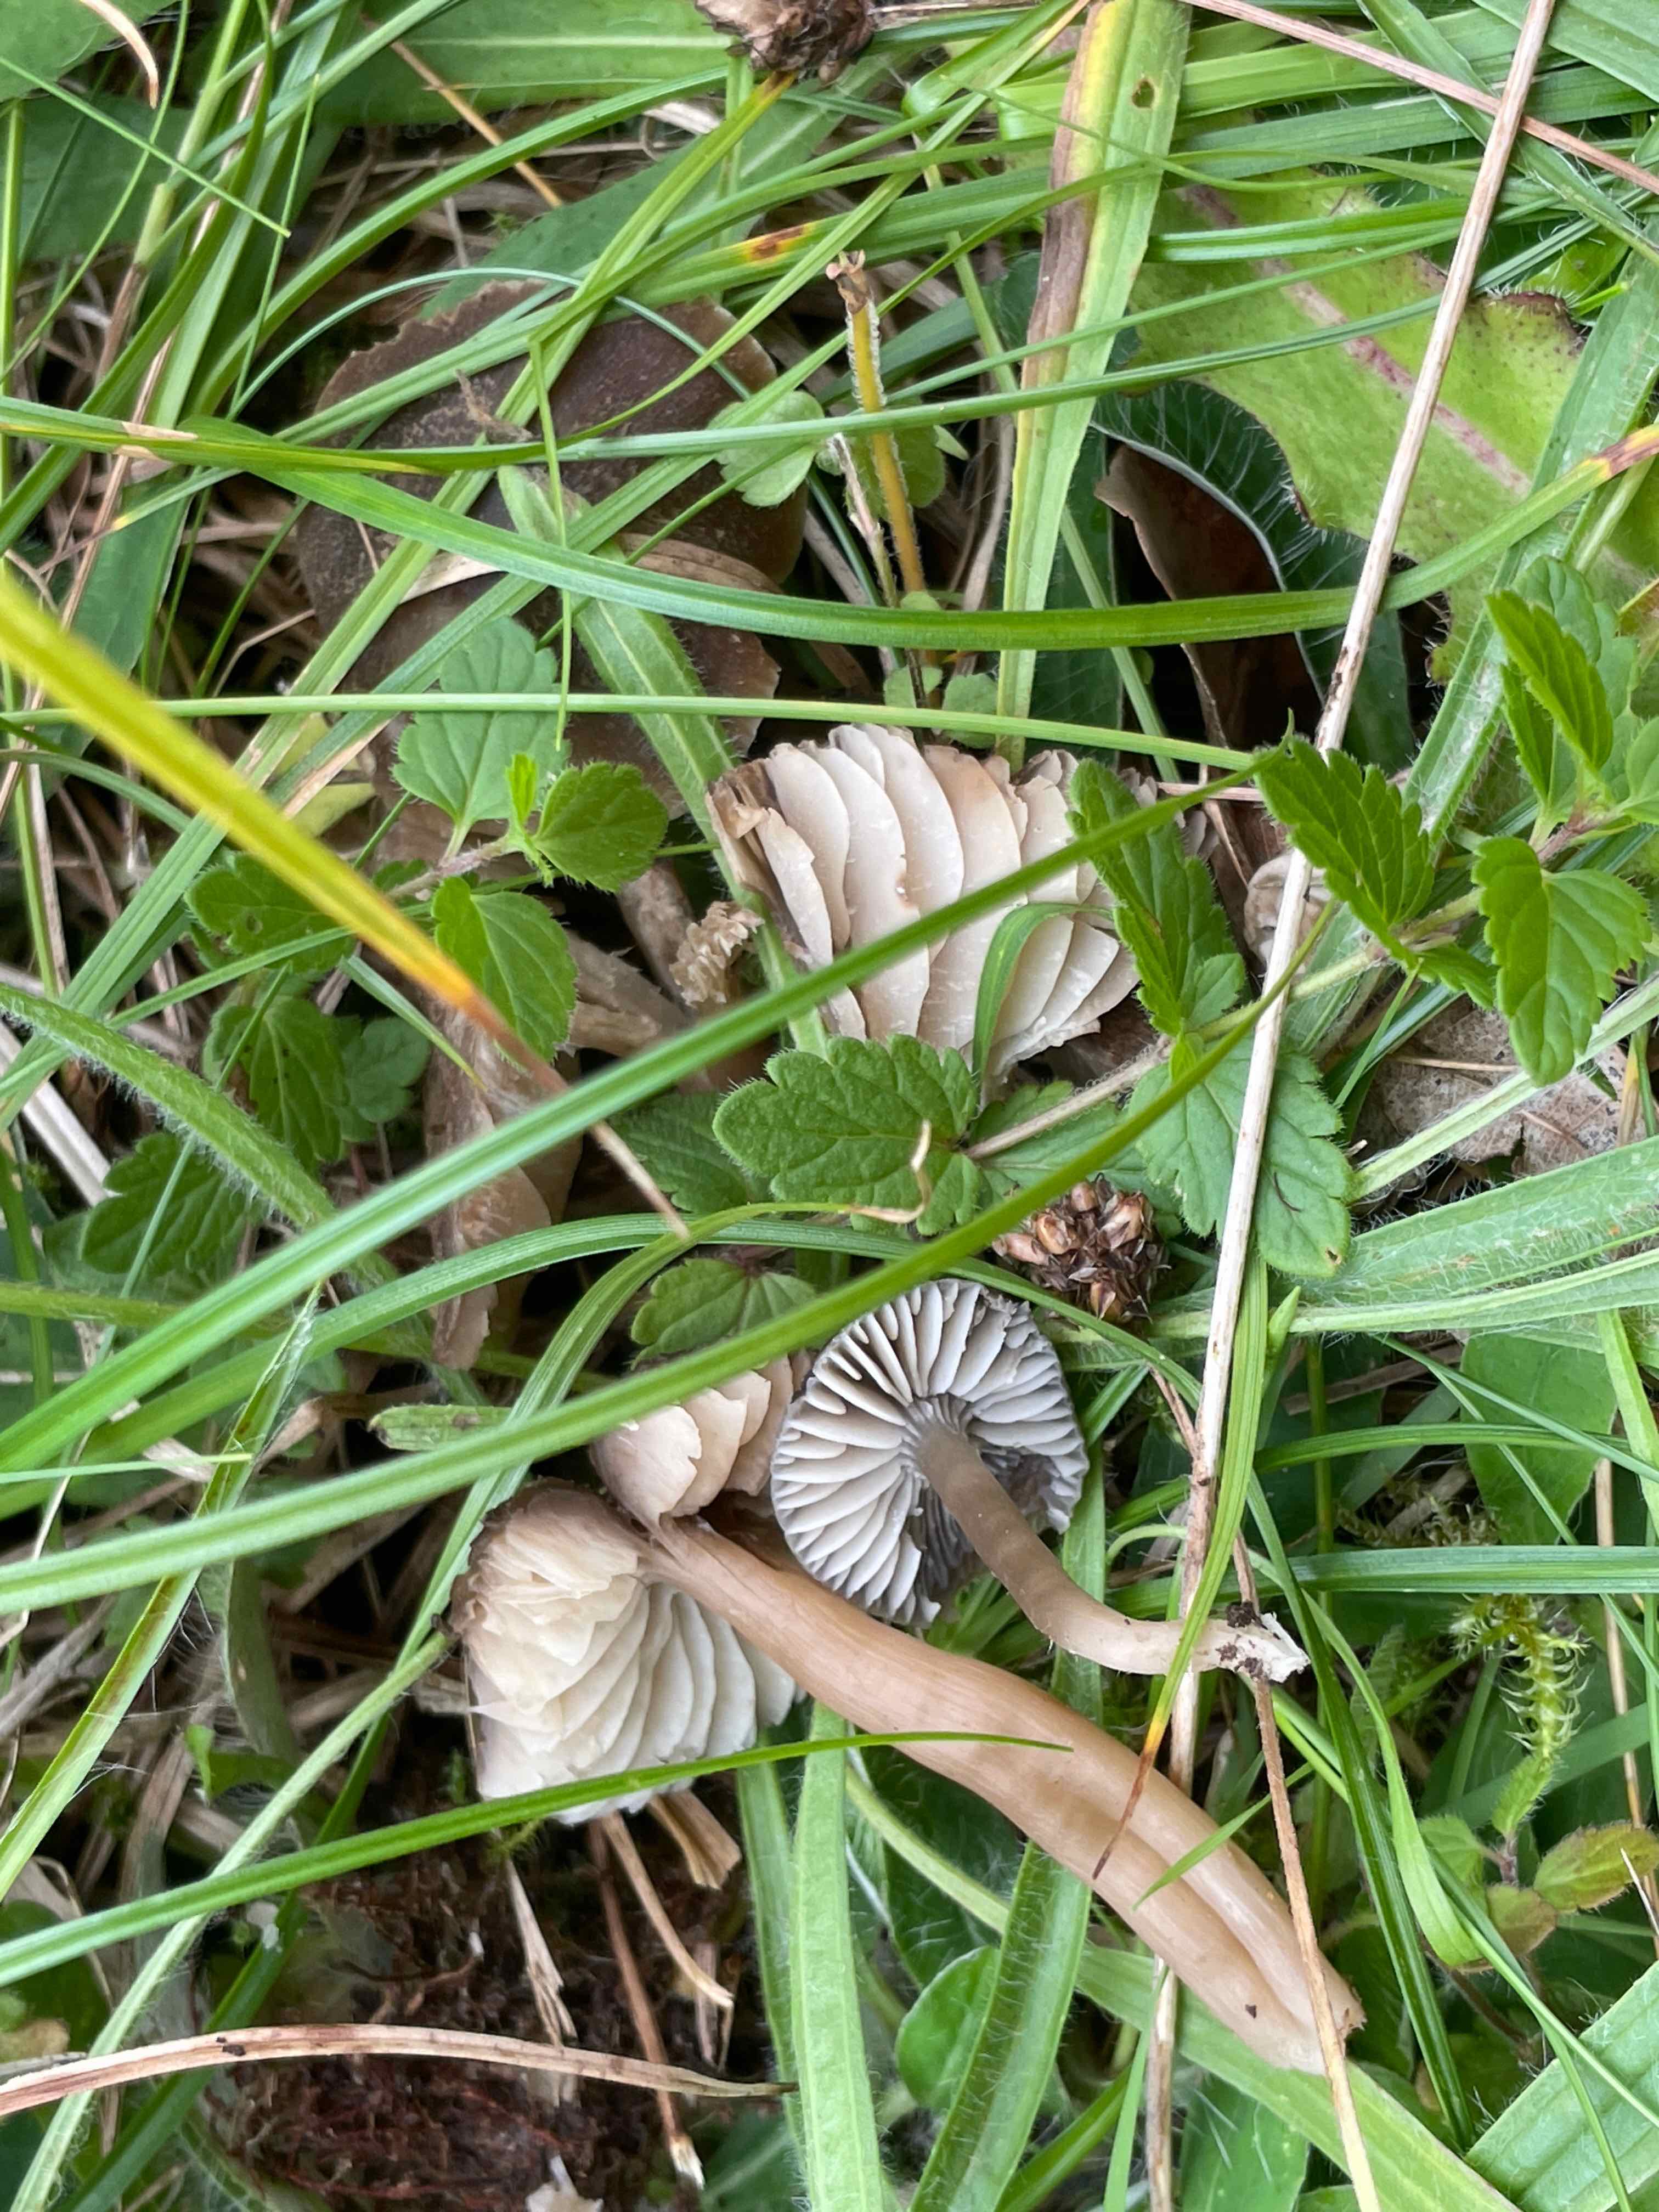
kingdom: Fungi
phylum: Basidiomycota
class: Agaricomycetes
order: Agaricales
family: Hygrophoraceae
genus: Neohygrocybe
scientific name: Neohygrocybe nitrata
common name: stinkende vokshat
